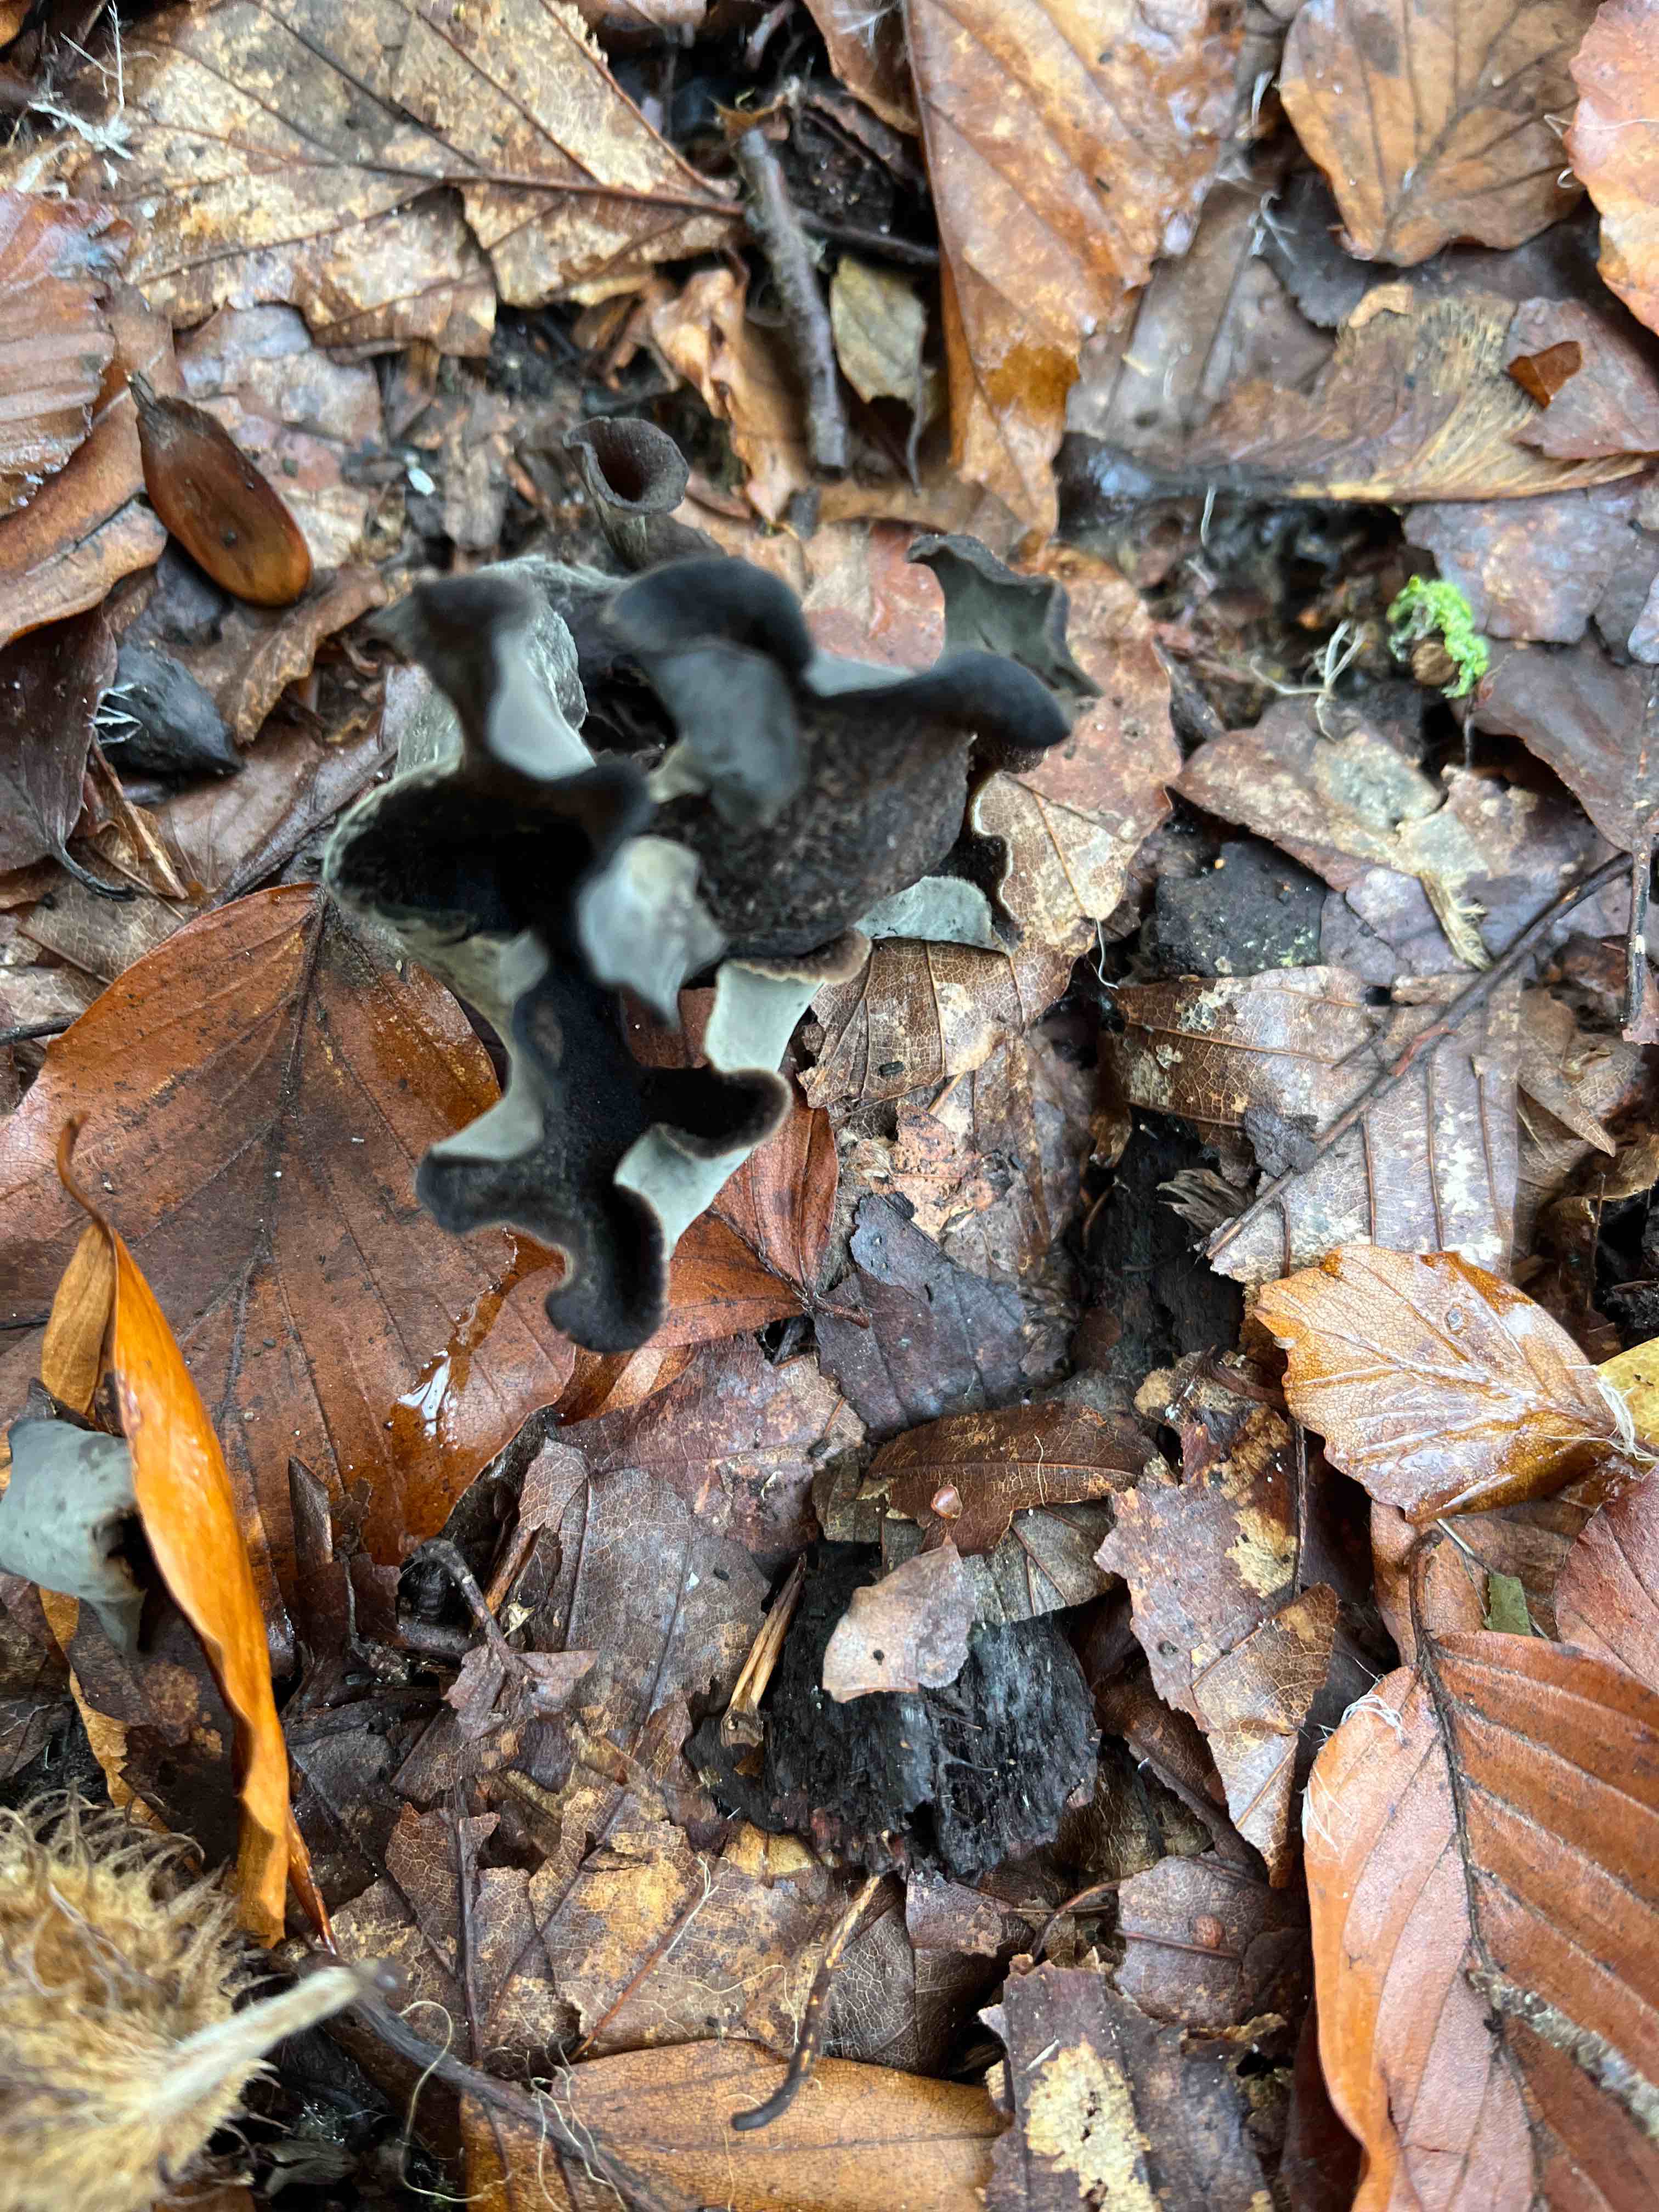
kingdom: Fungi
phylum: Basidiomycota
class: Agaricomycetes
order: Cantharellales
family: Hydnaceae
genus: Craterellus
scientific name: Craterellus cornucopioides
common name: trompetsvamp
